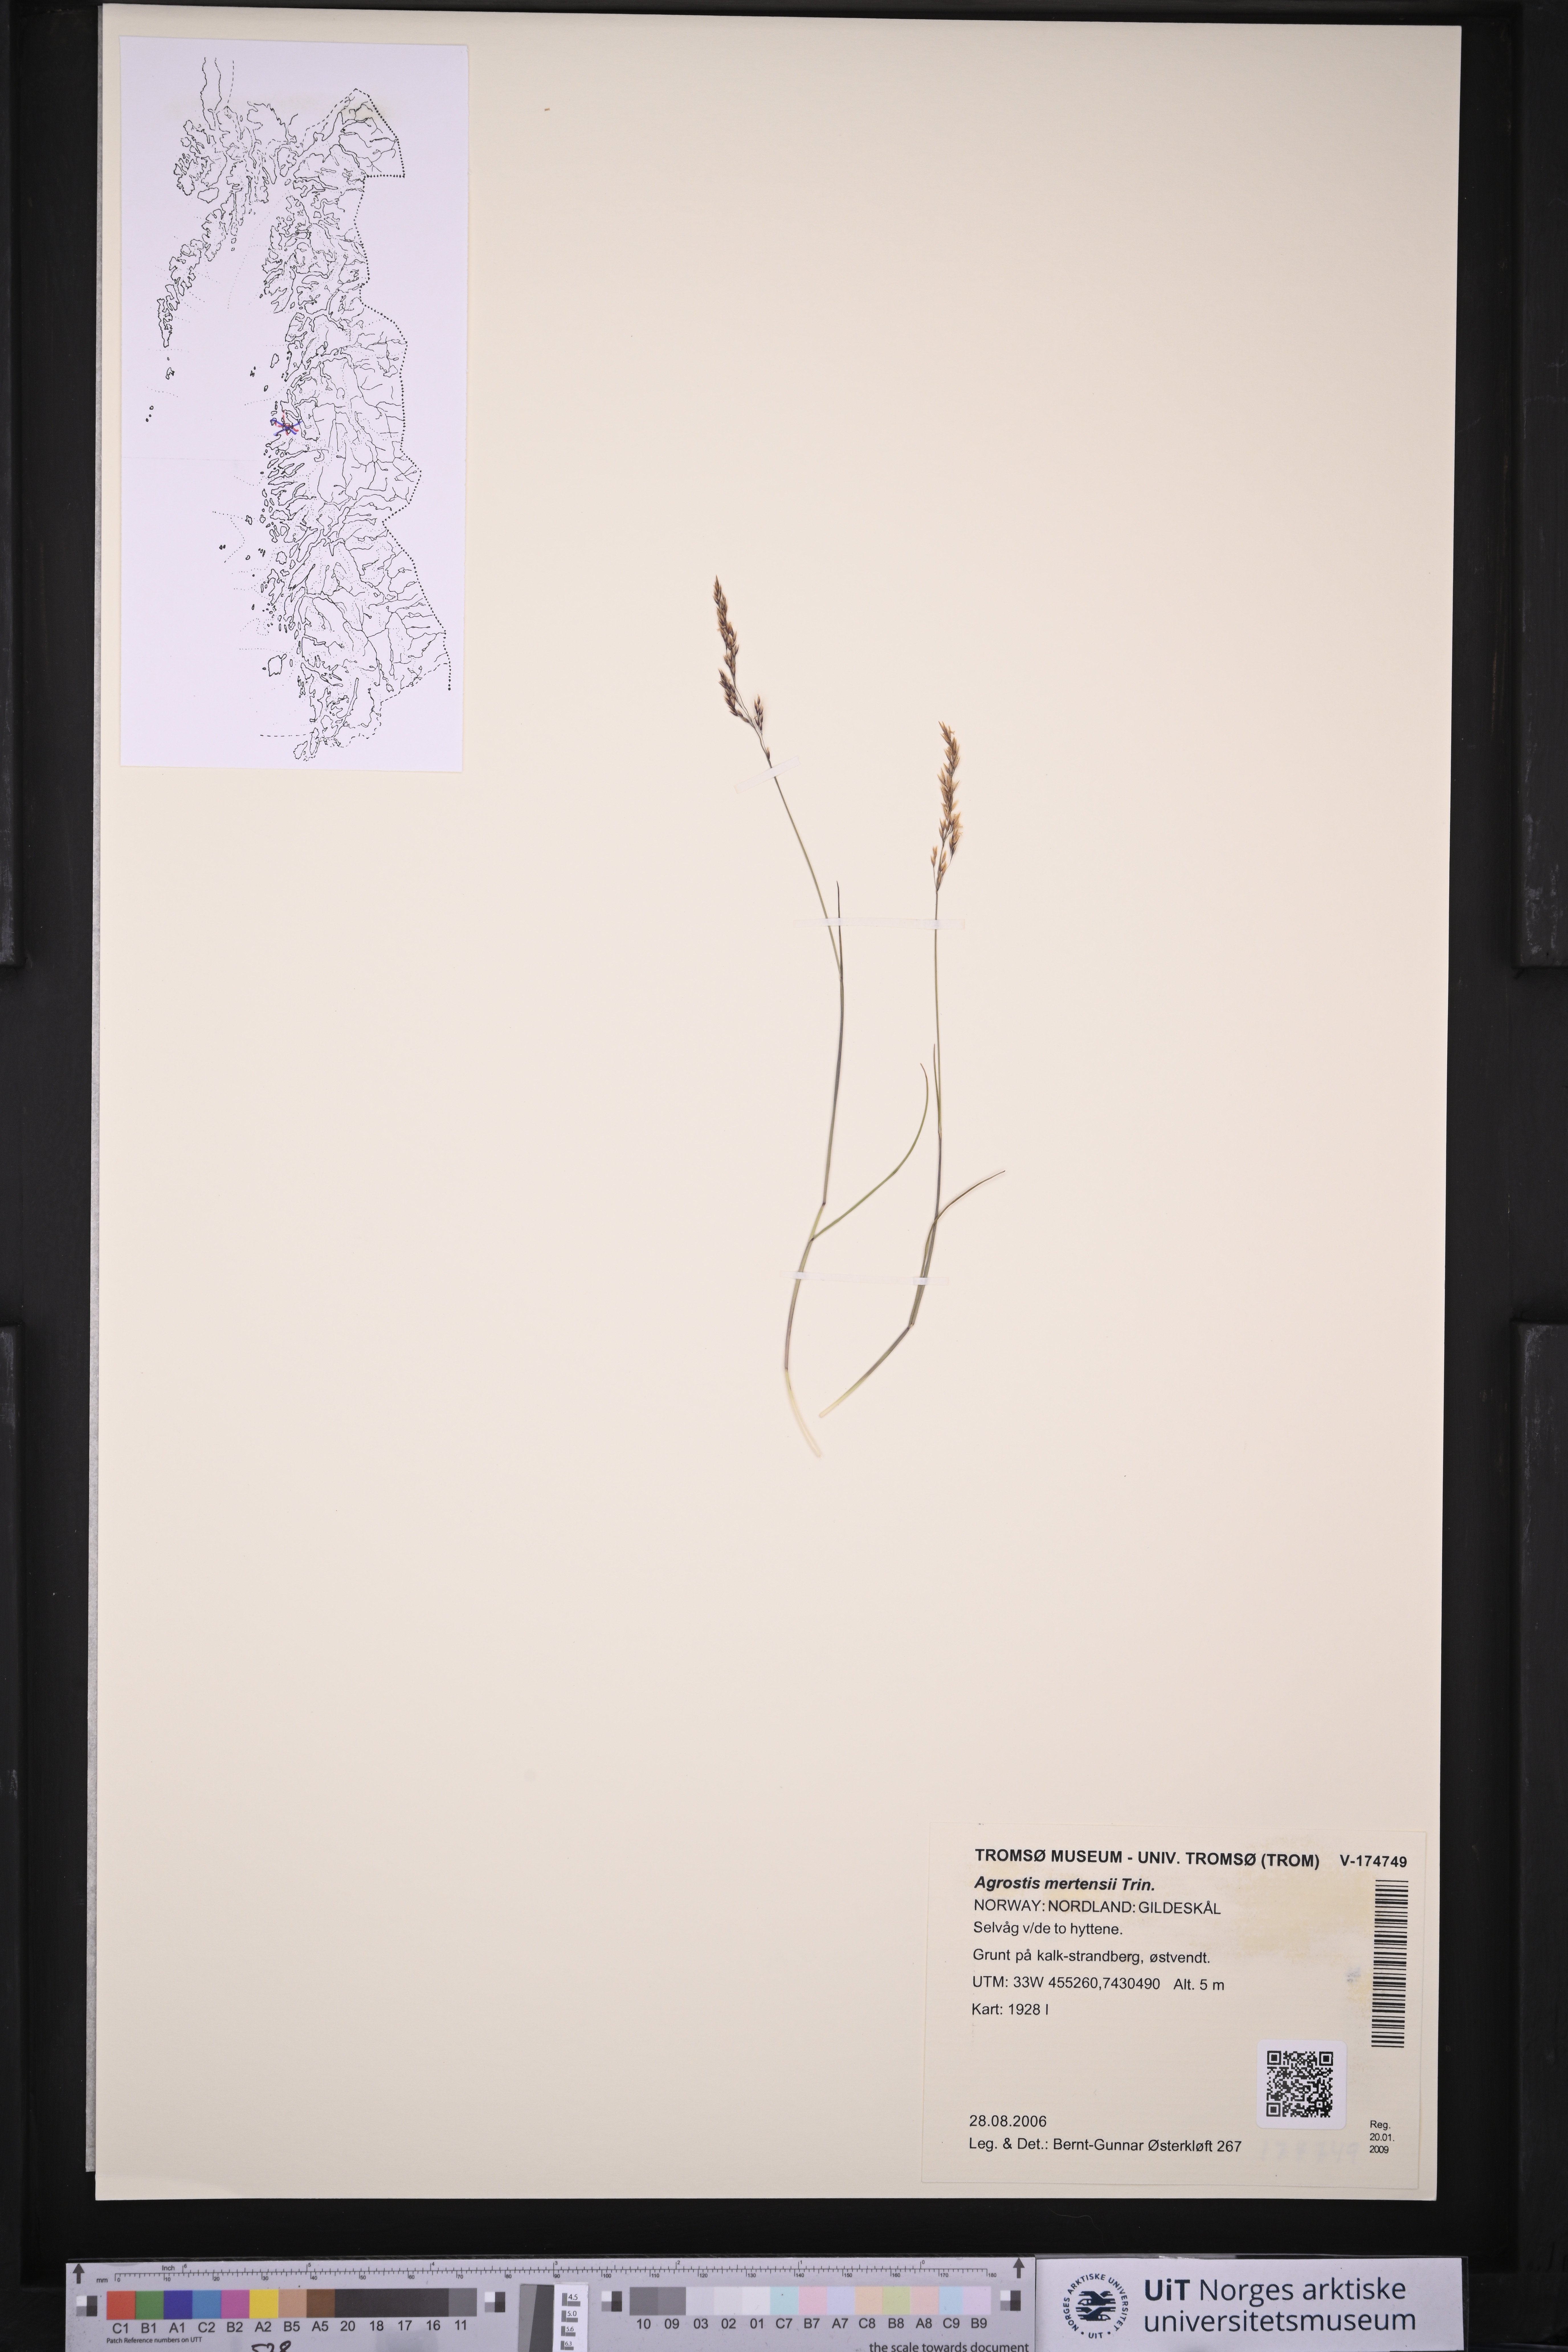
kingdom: Plantae
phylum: Tracheophyta
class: Liliopsida
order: Poales
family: Poaceae
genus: Agrostis
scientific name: Agrostis mertensii
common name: Northern bent
